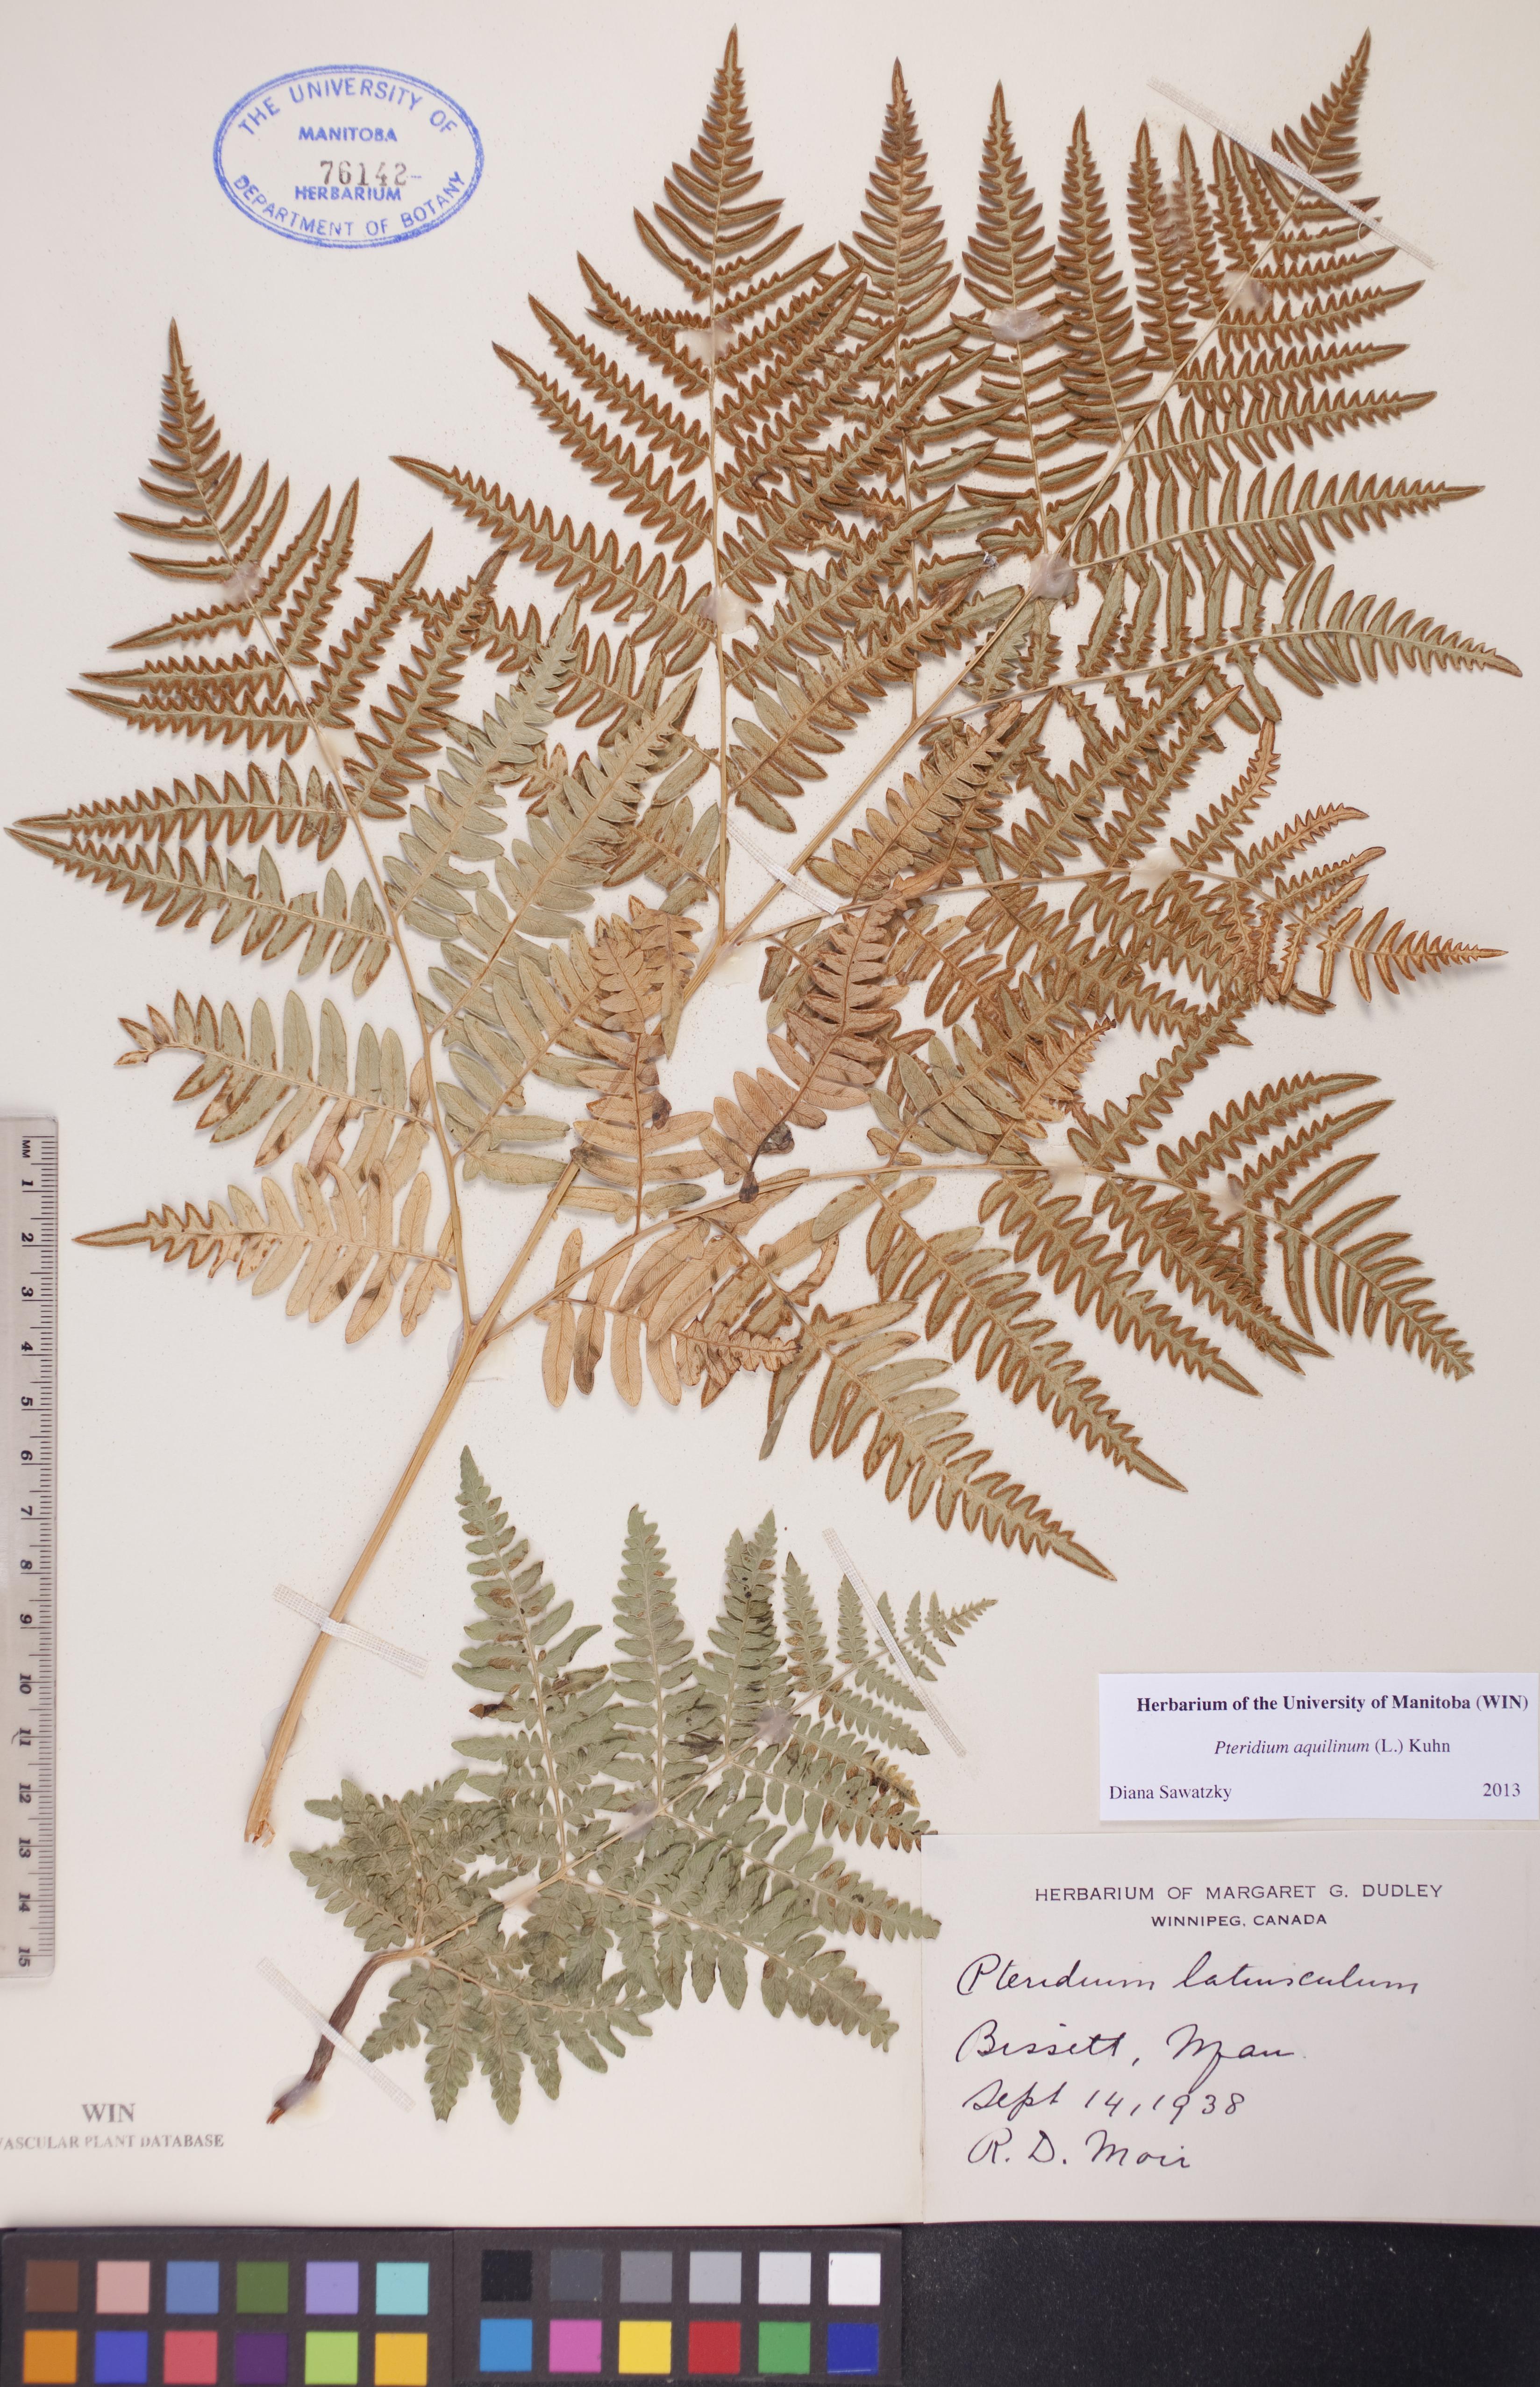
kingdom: Plantae
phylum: Tracheophyta
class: Polypodiopsida
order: Polypodiales
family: Dennstaedtiaceae
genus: Pteridium
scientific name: Pteridium aquilinum
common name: Bracken
